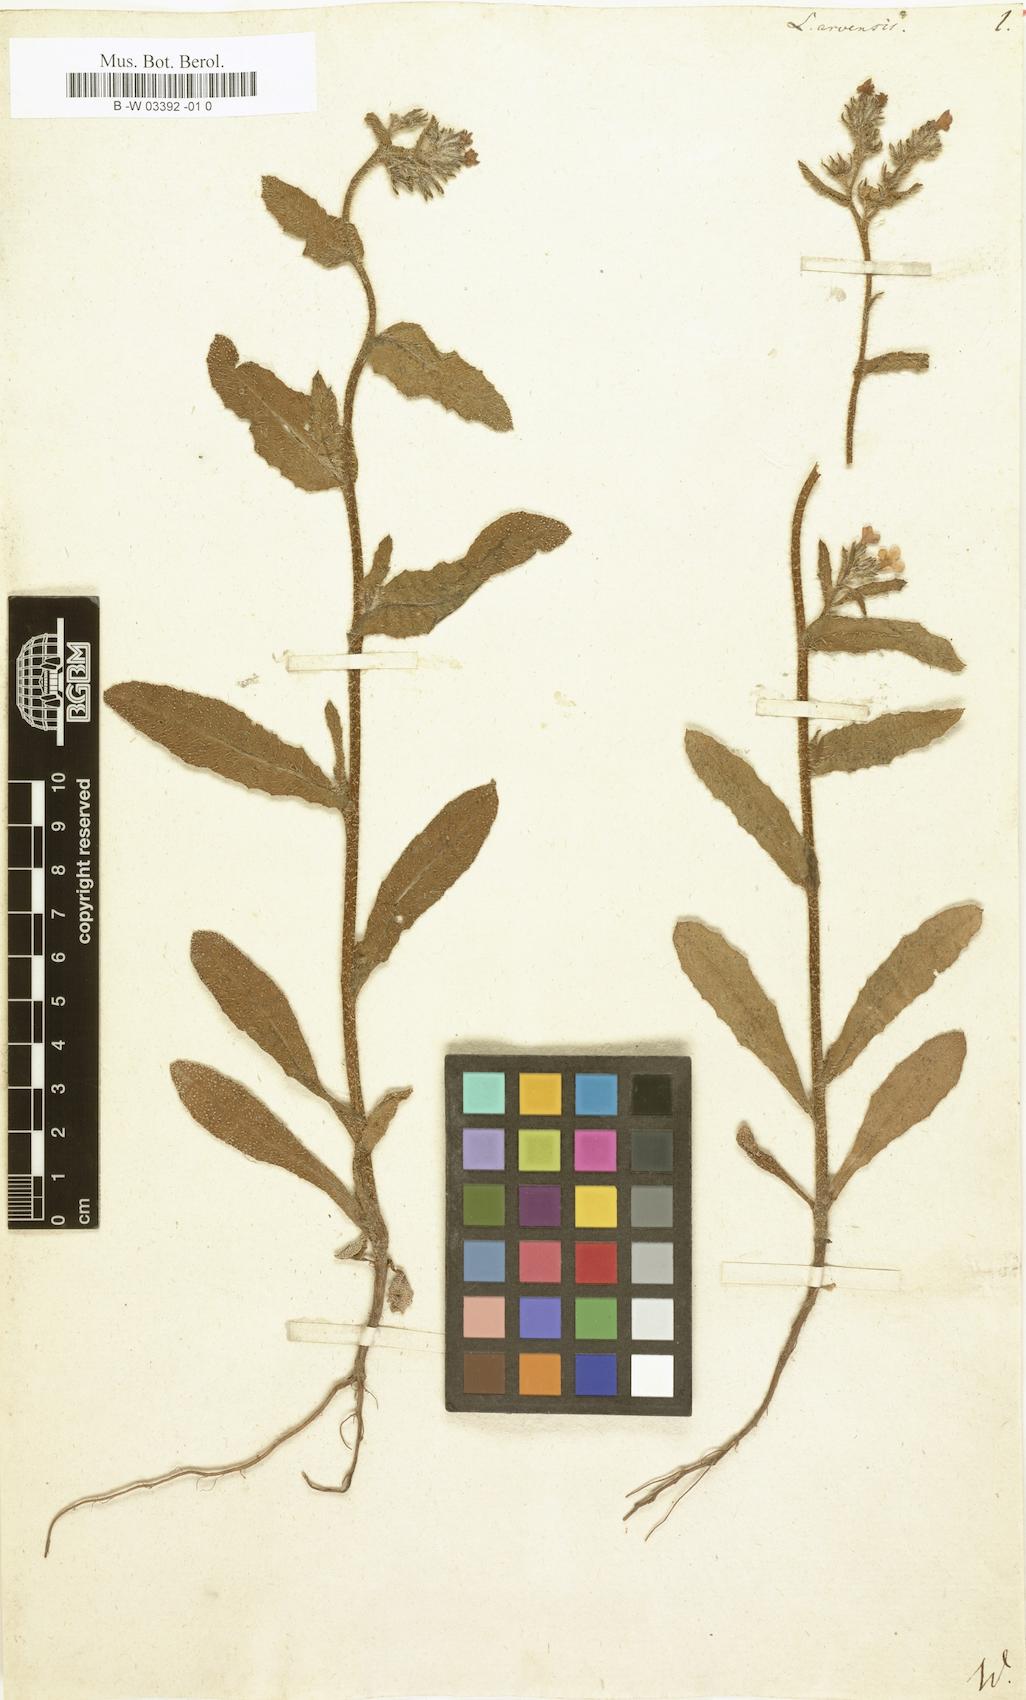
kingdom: Plantae
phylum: Tracheophyta
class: Magnoliopsida
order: Boraginales
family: Boraginaceae
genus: Lycopsis
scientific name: Lycopsis arvensis
